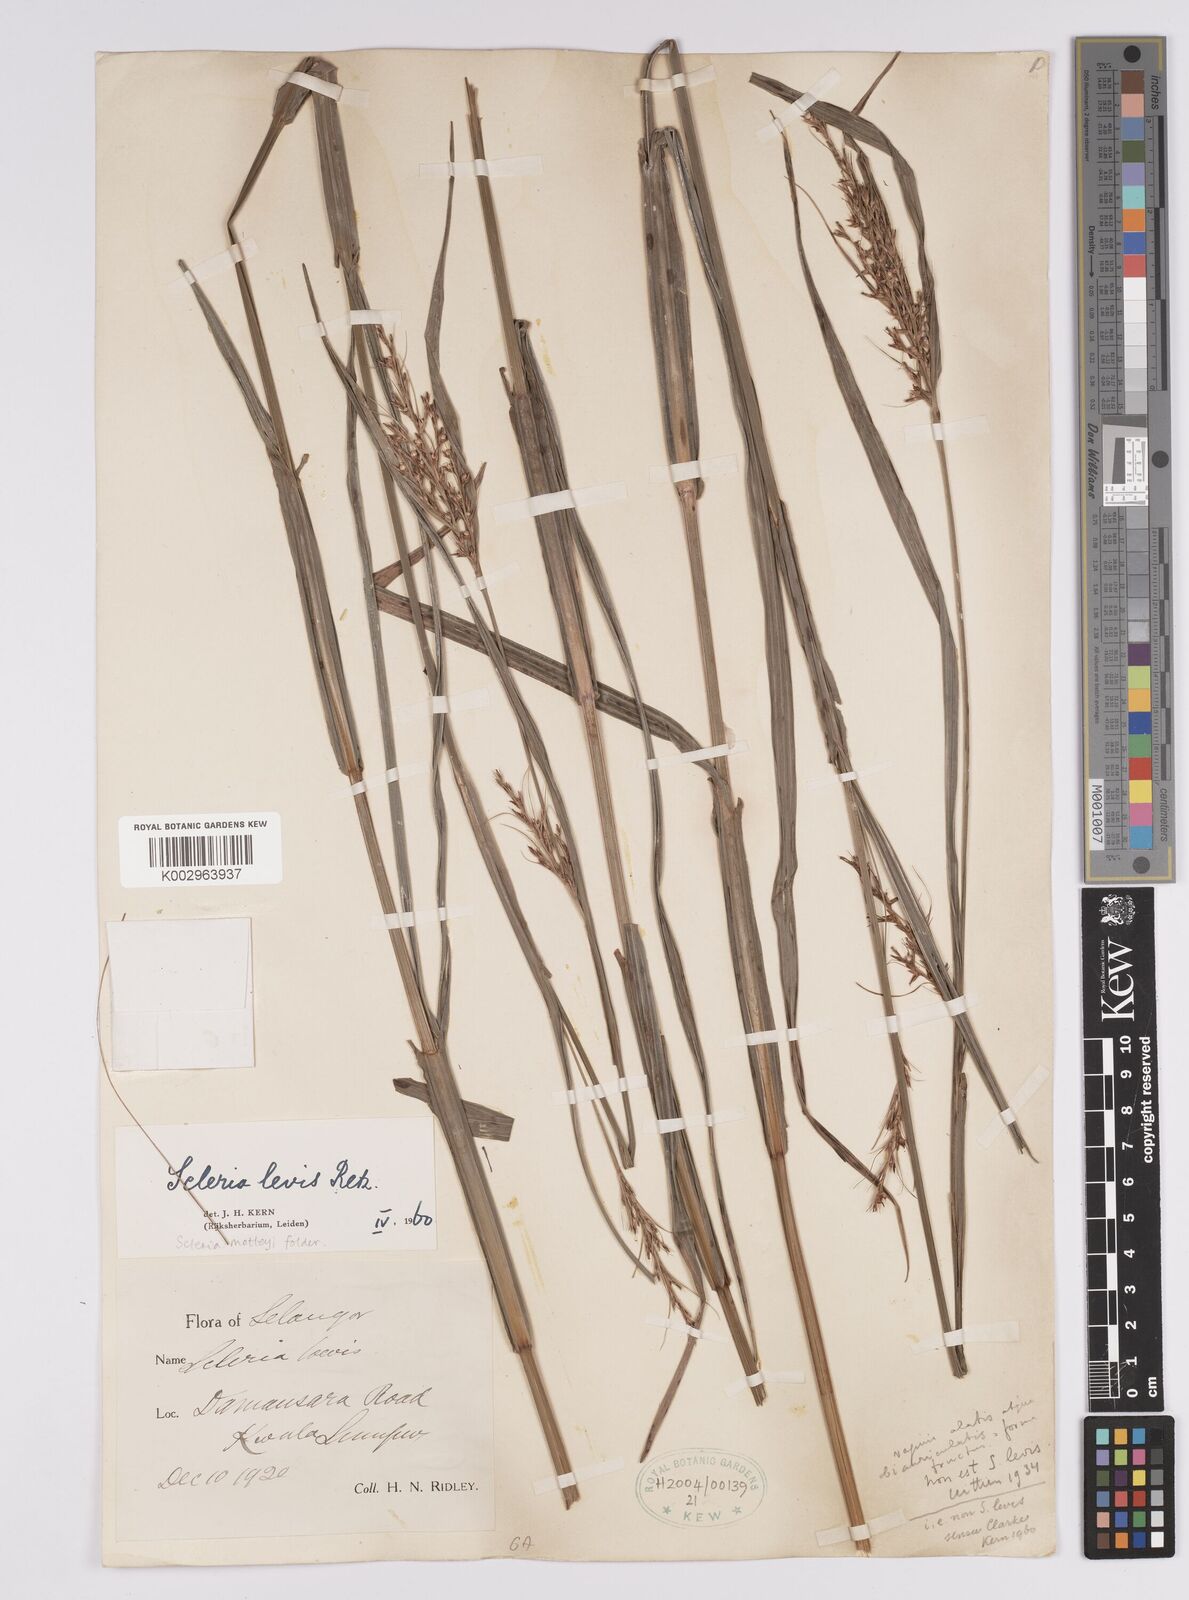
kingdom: Plantae
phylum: Tracheophyta
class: Liliopsida
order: Poales
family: Cyperaceae
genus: Scleria
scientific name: Scleria levis
